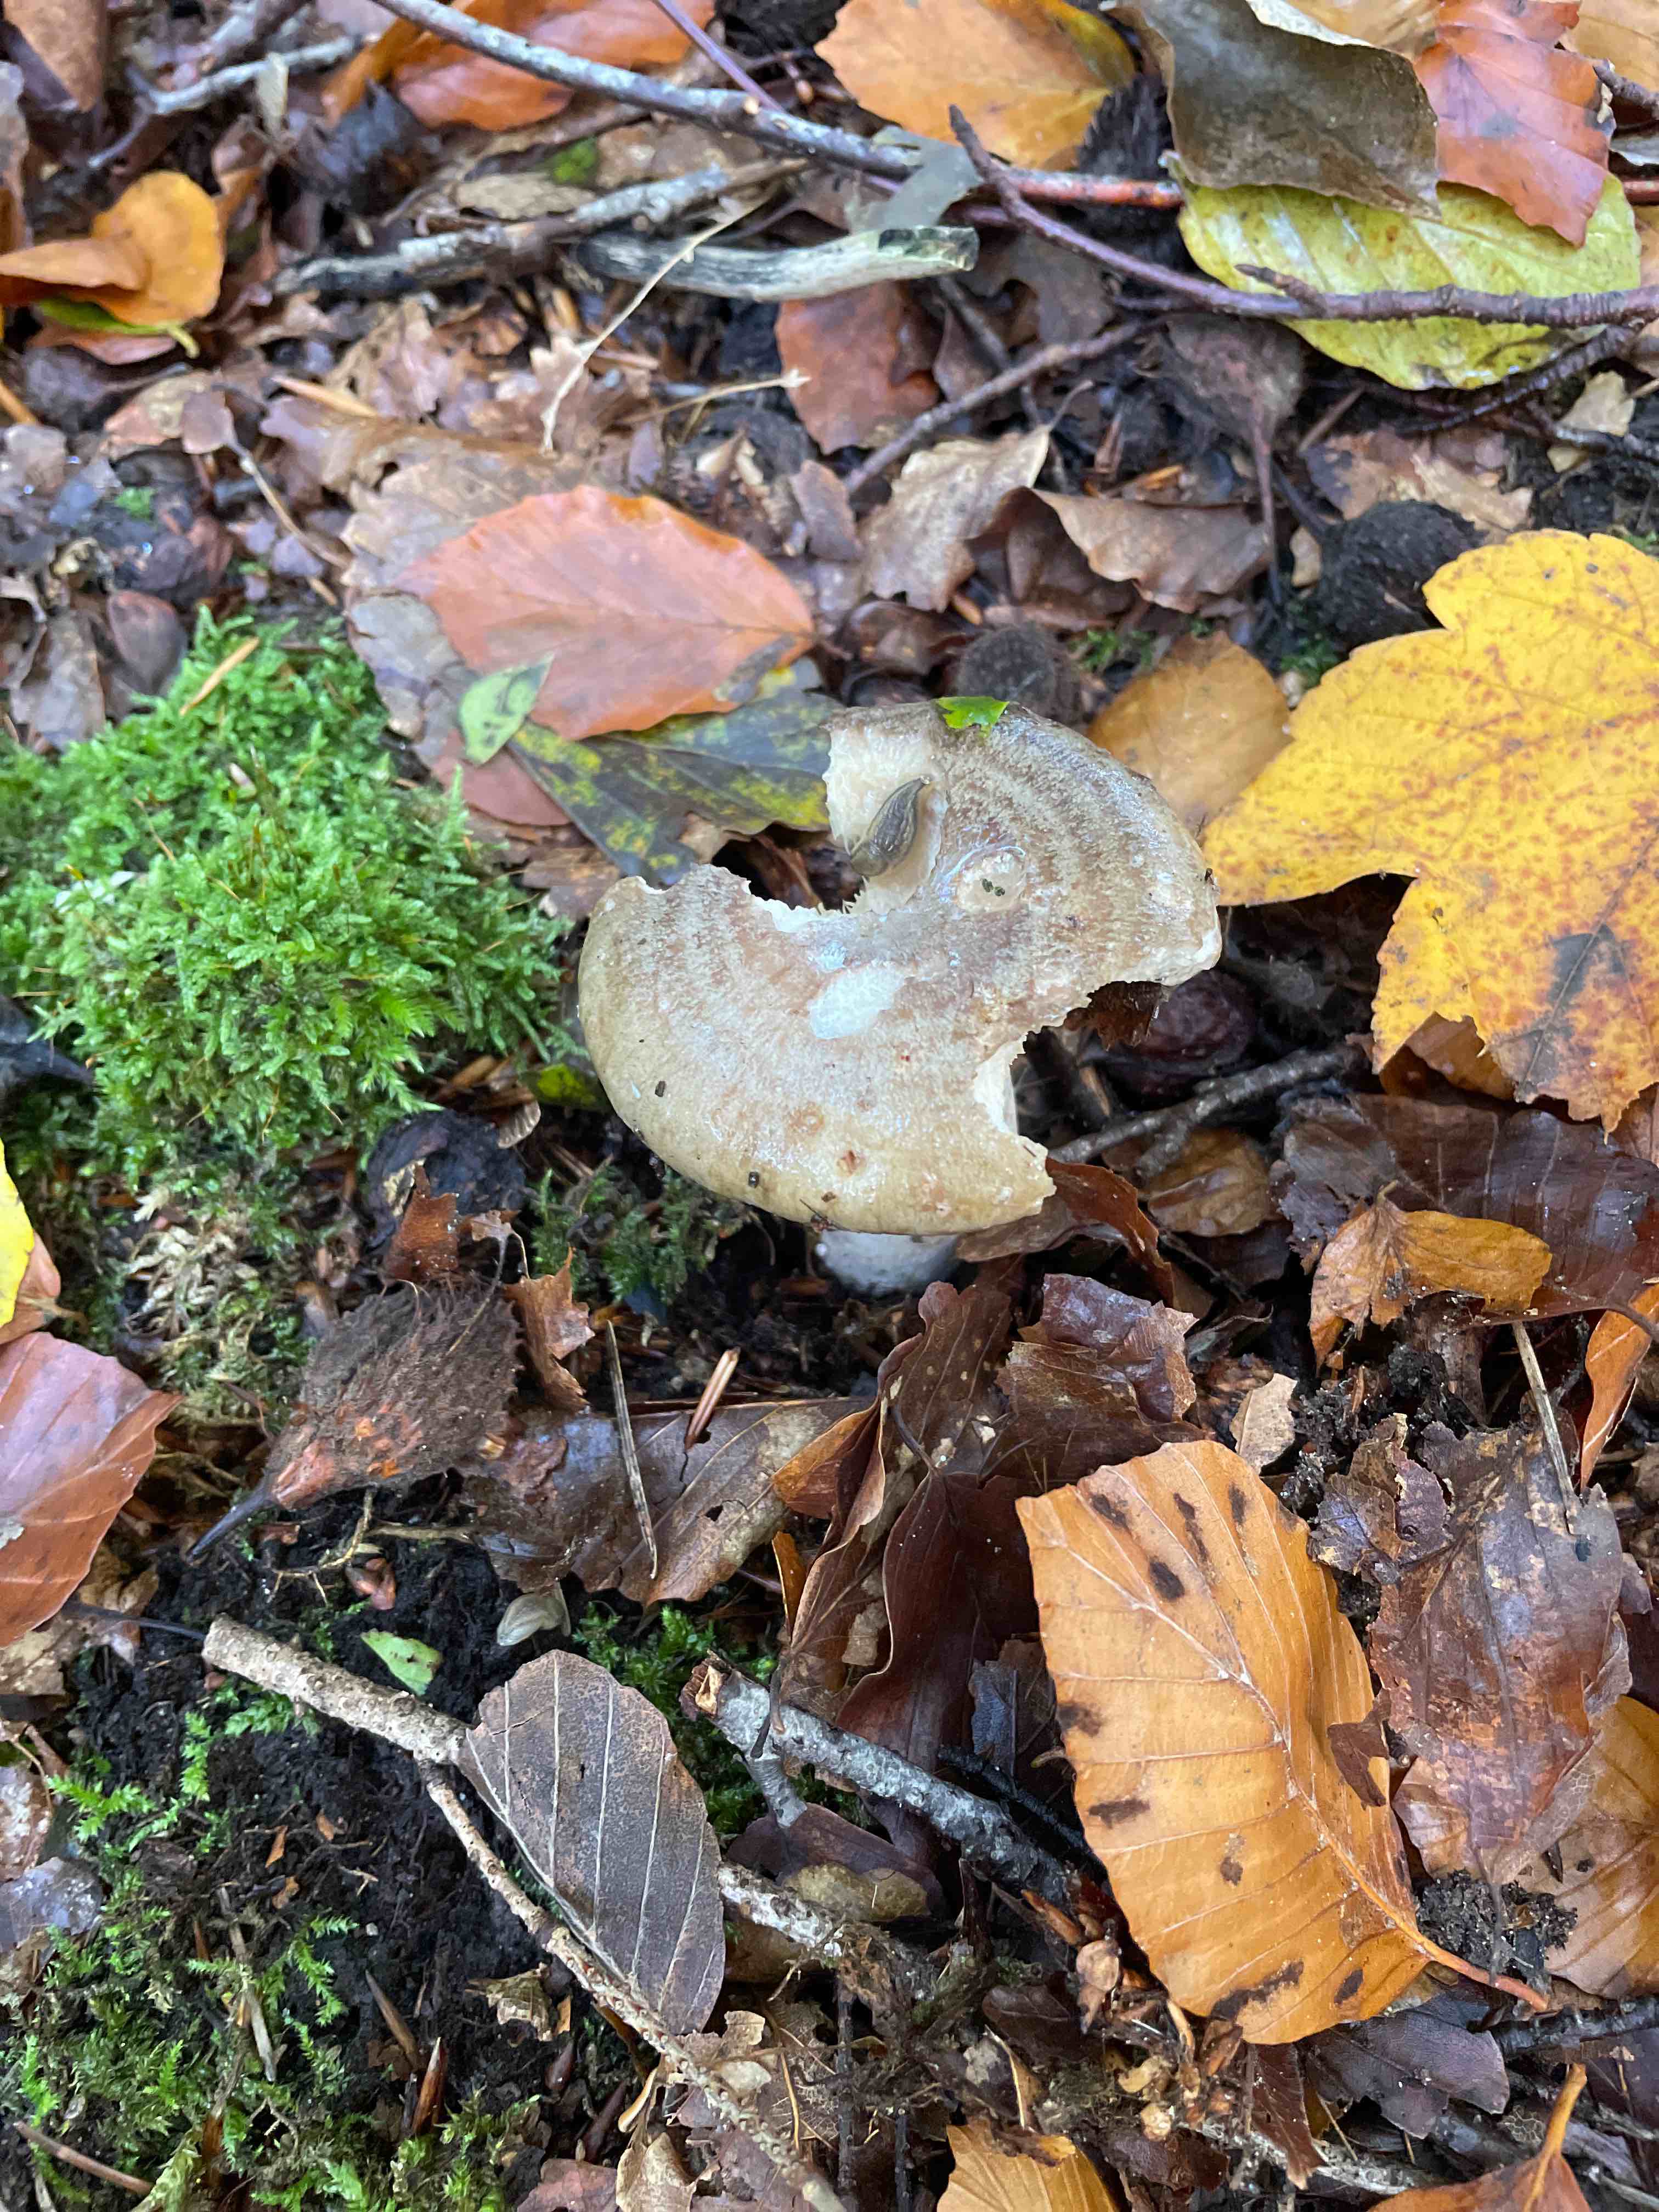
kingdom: Fungi
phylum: Basidiomycota
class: Agaricomycetes
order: Russulales
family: Russulaceae
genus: Lactarius
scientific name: Lactarius blennius
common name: dråbeplettet mælkehat
